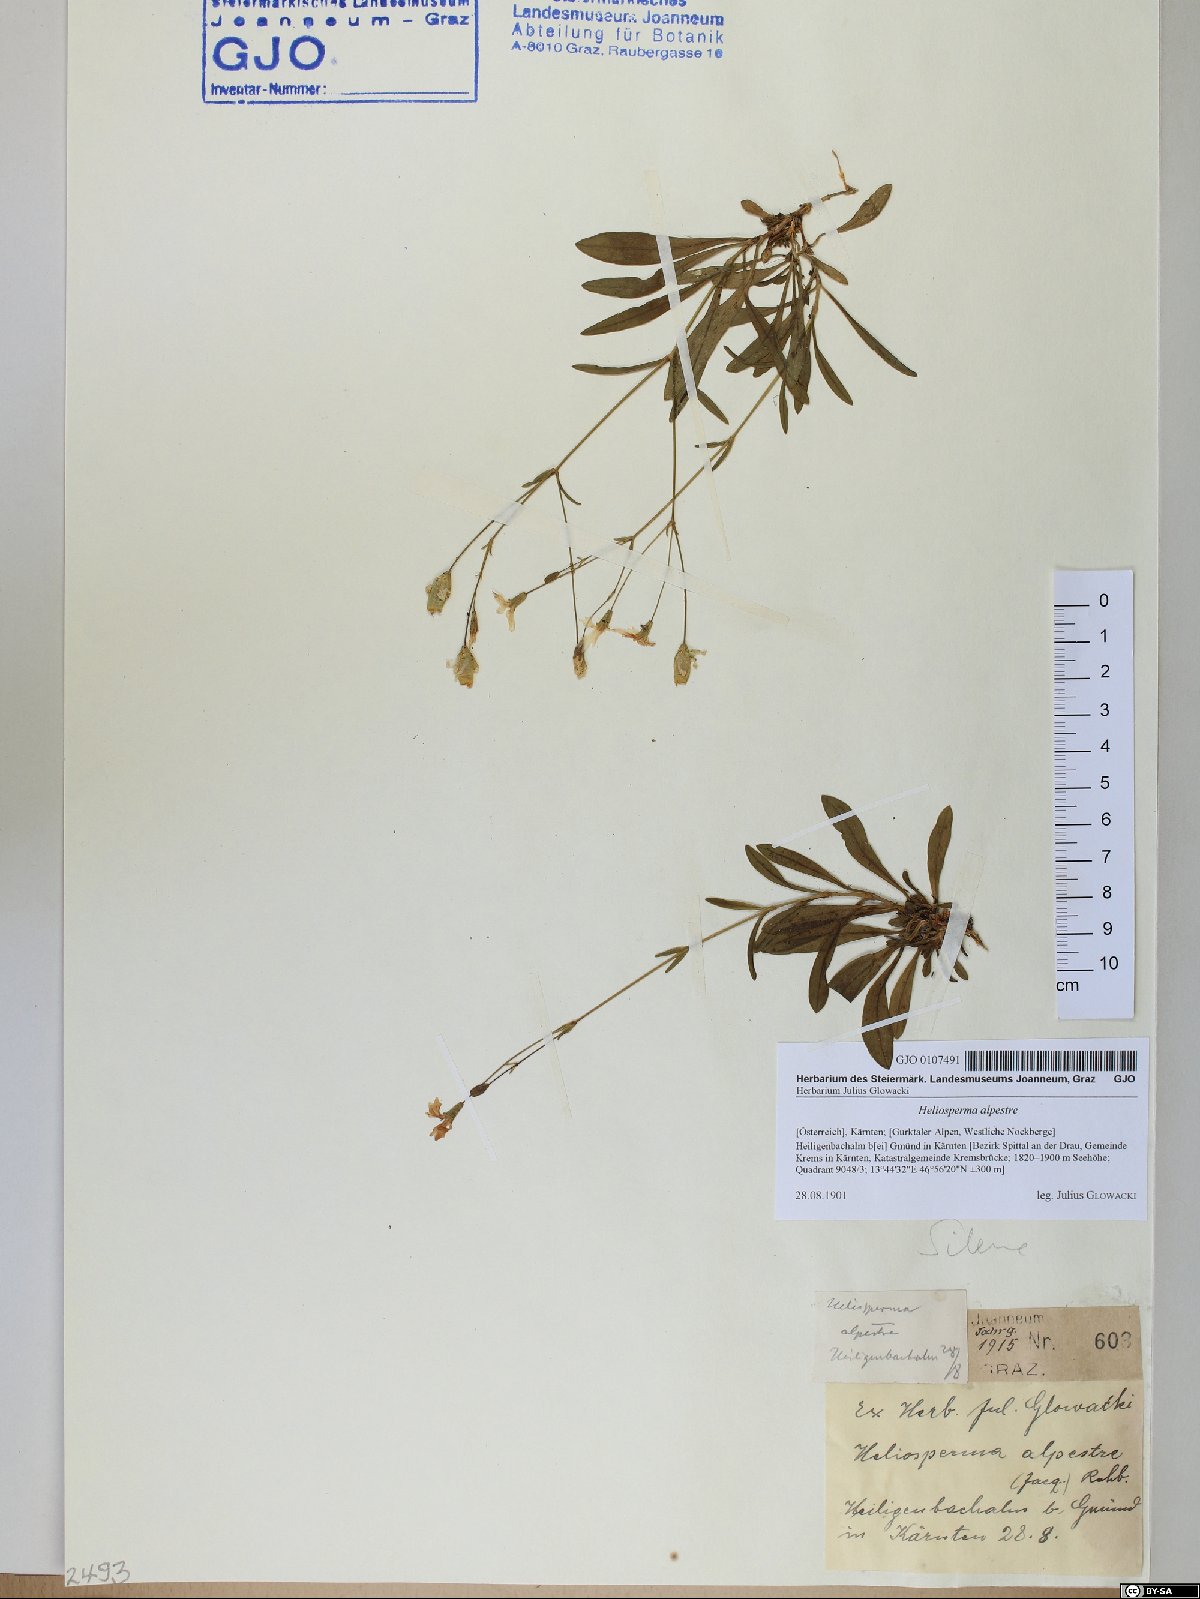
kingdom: Plantae
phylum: Tracheophyta
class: Magnoliopsida
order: Caryophyllales
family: Caryophyllaceae
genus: Heliosperma
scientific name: Heliosperma alpestre
